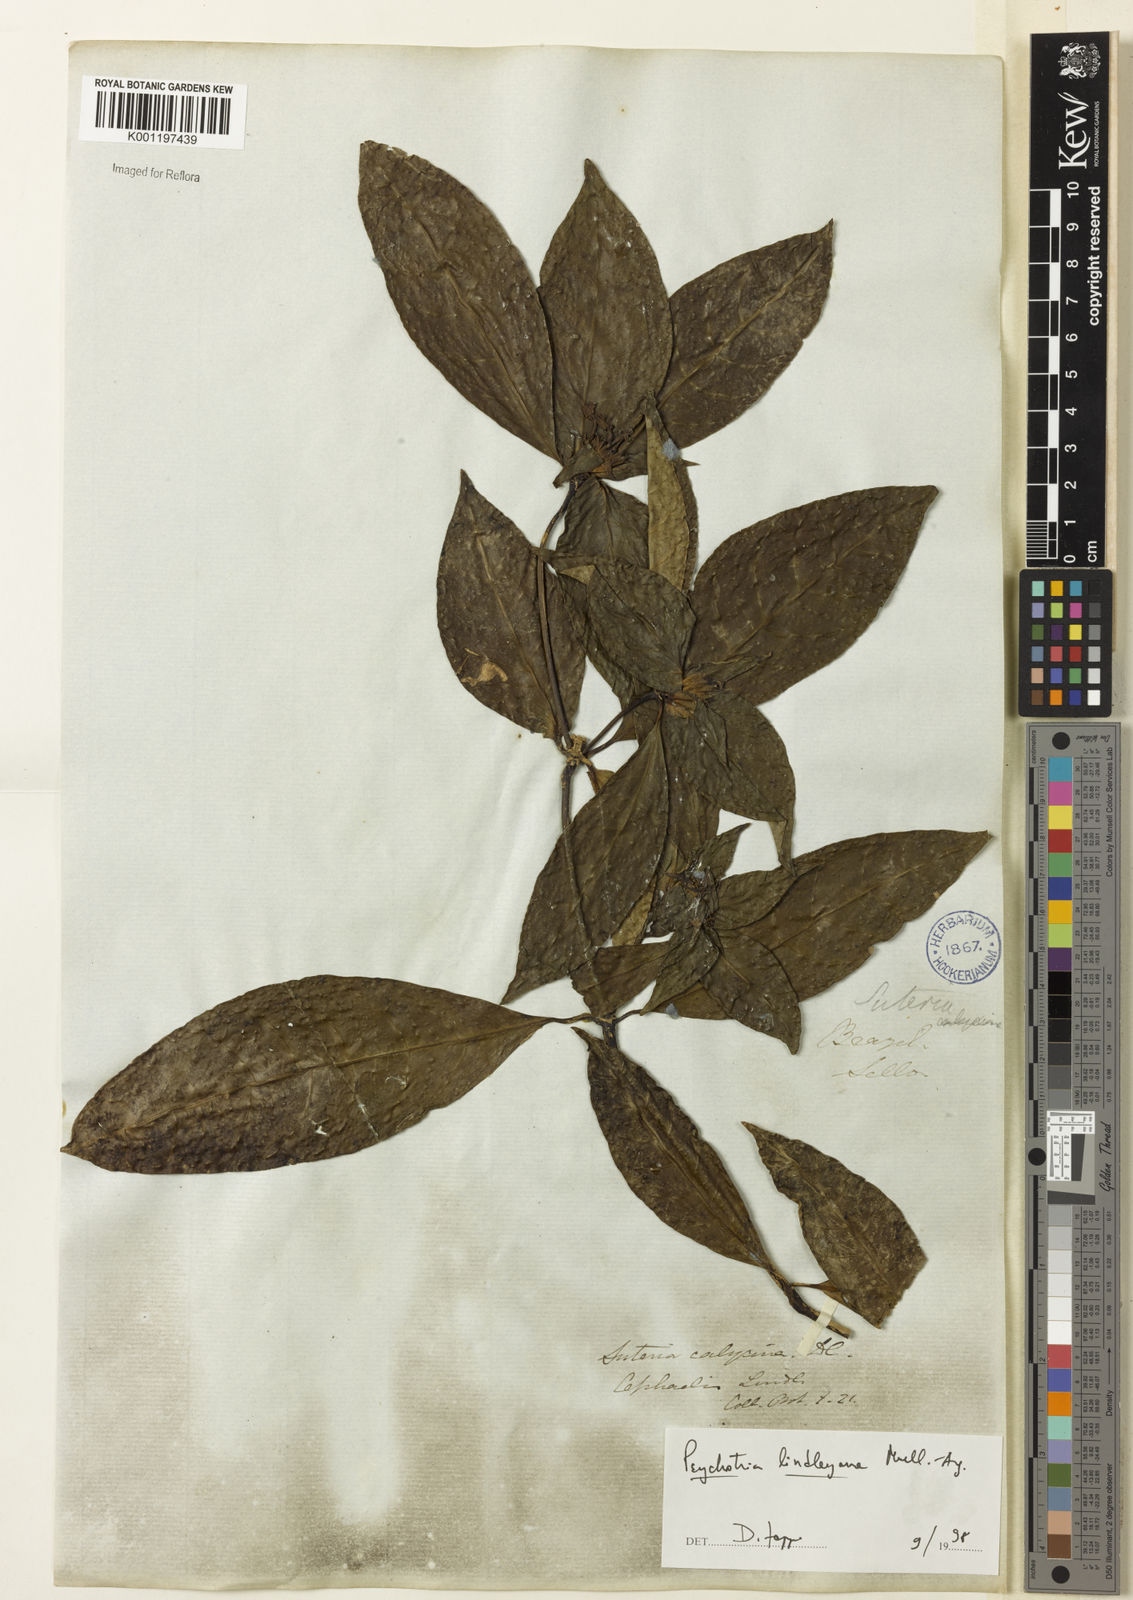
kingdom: Plantae
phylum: Tracheophyta
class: Magnoliopsida
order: Gentianales
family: Rubiaceae
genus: Psychotria
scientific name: Psychotria
